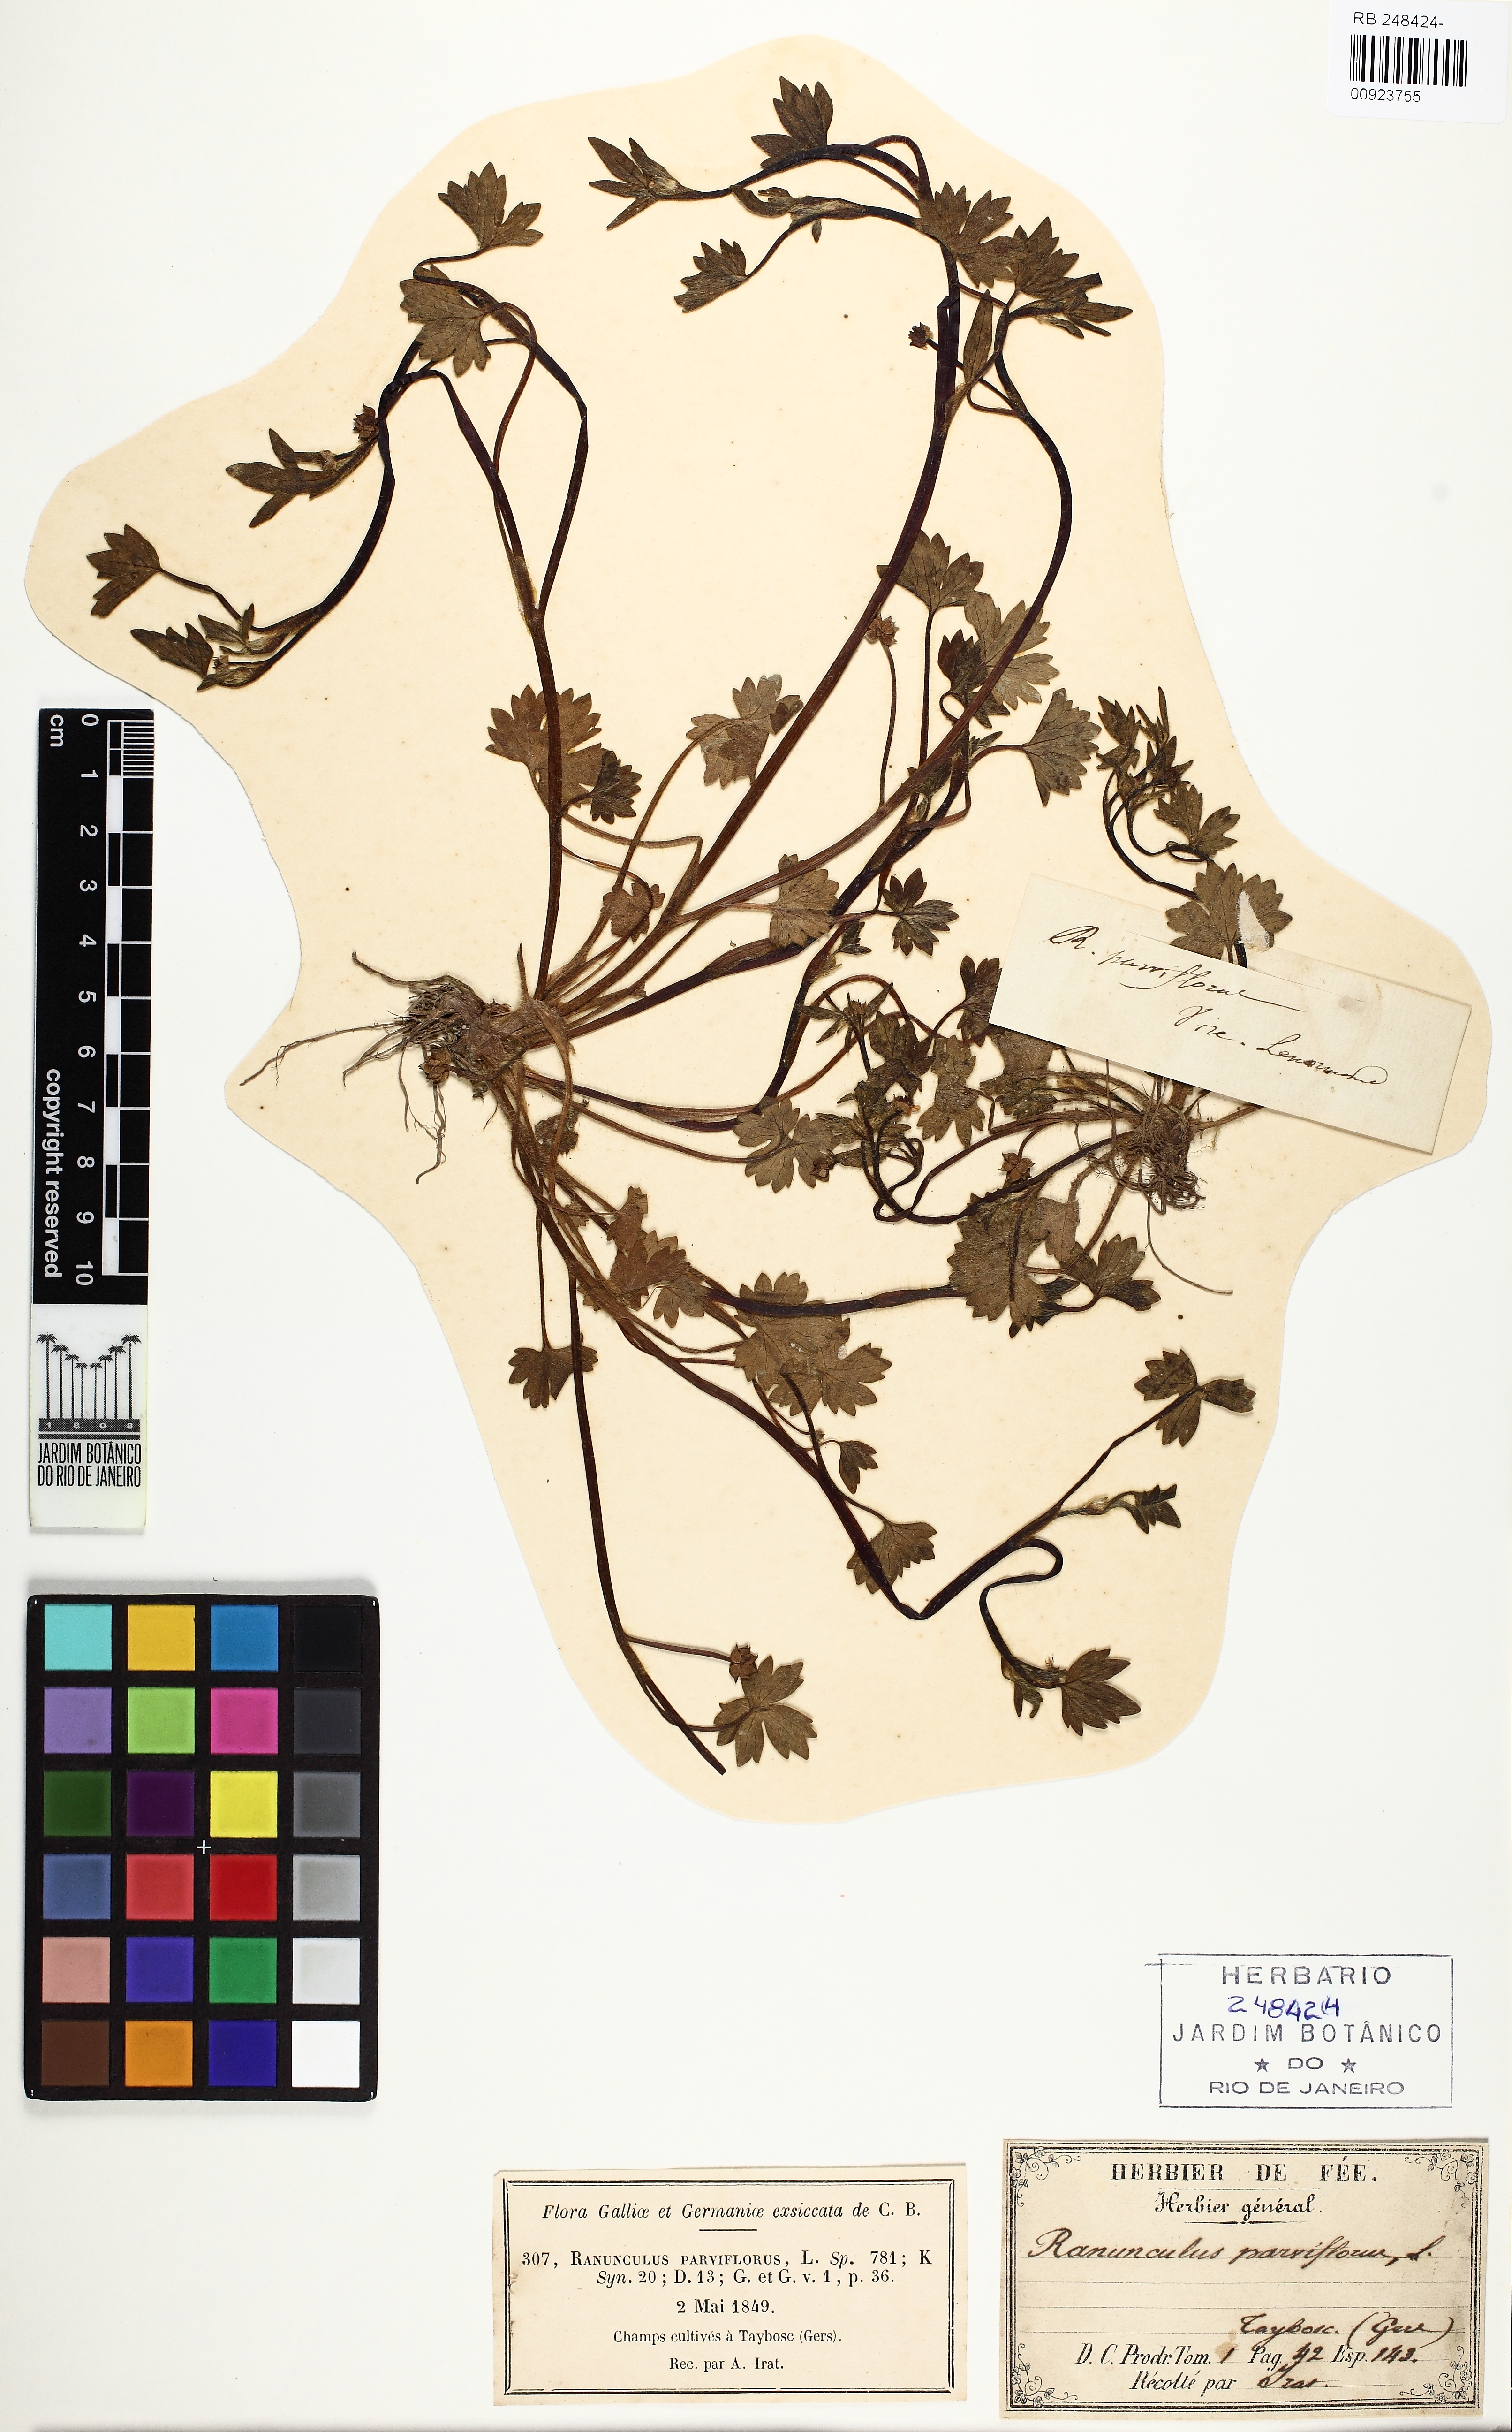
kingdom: Plantae
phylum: Tracheophyta
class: Magnoliopsida
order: Ranunculales
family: Ranunculaceae
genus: Ranunculus
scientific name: Ranunculus parviflorus
